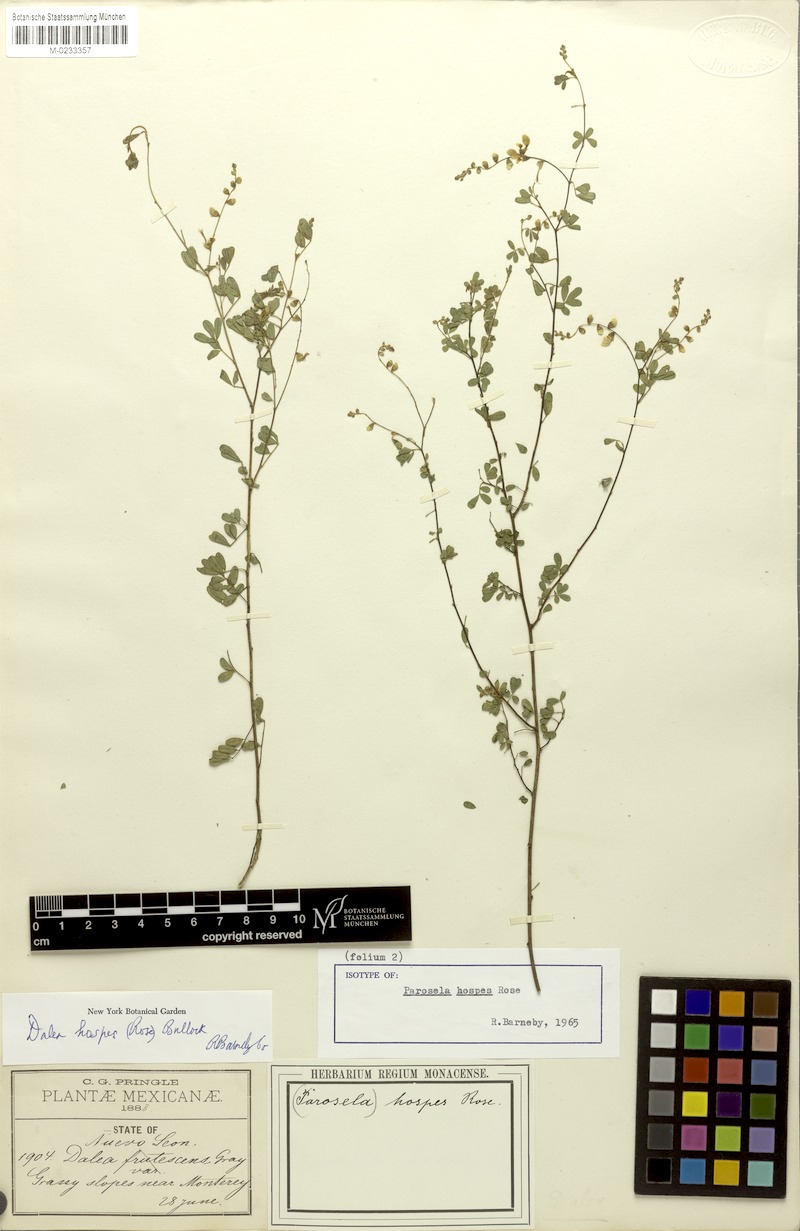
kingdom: Plantae
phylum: Tracheophyta
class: Magnoliopsida
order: Fabales
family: Fabaceae
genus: Dalea
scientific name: Dalea hospes
